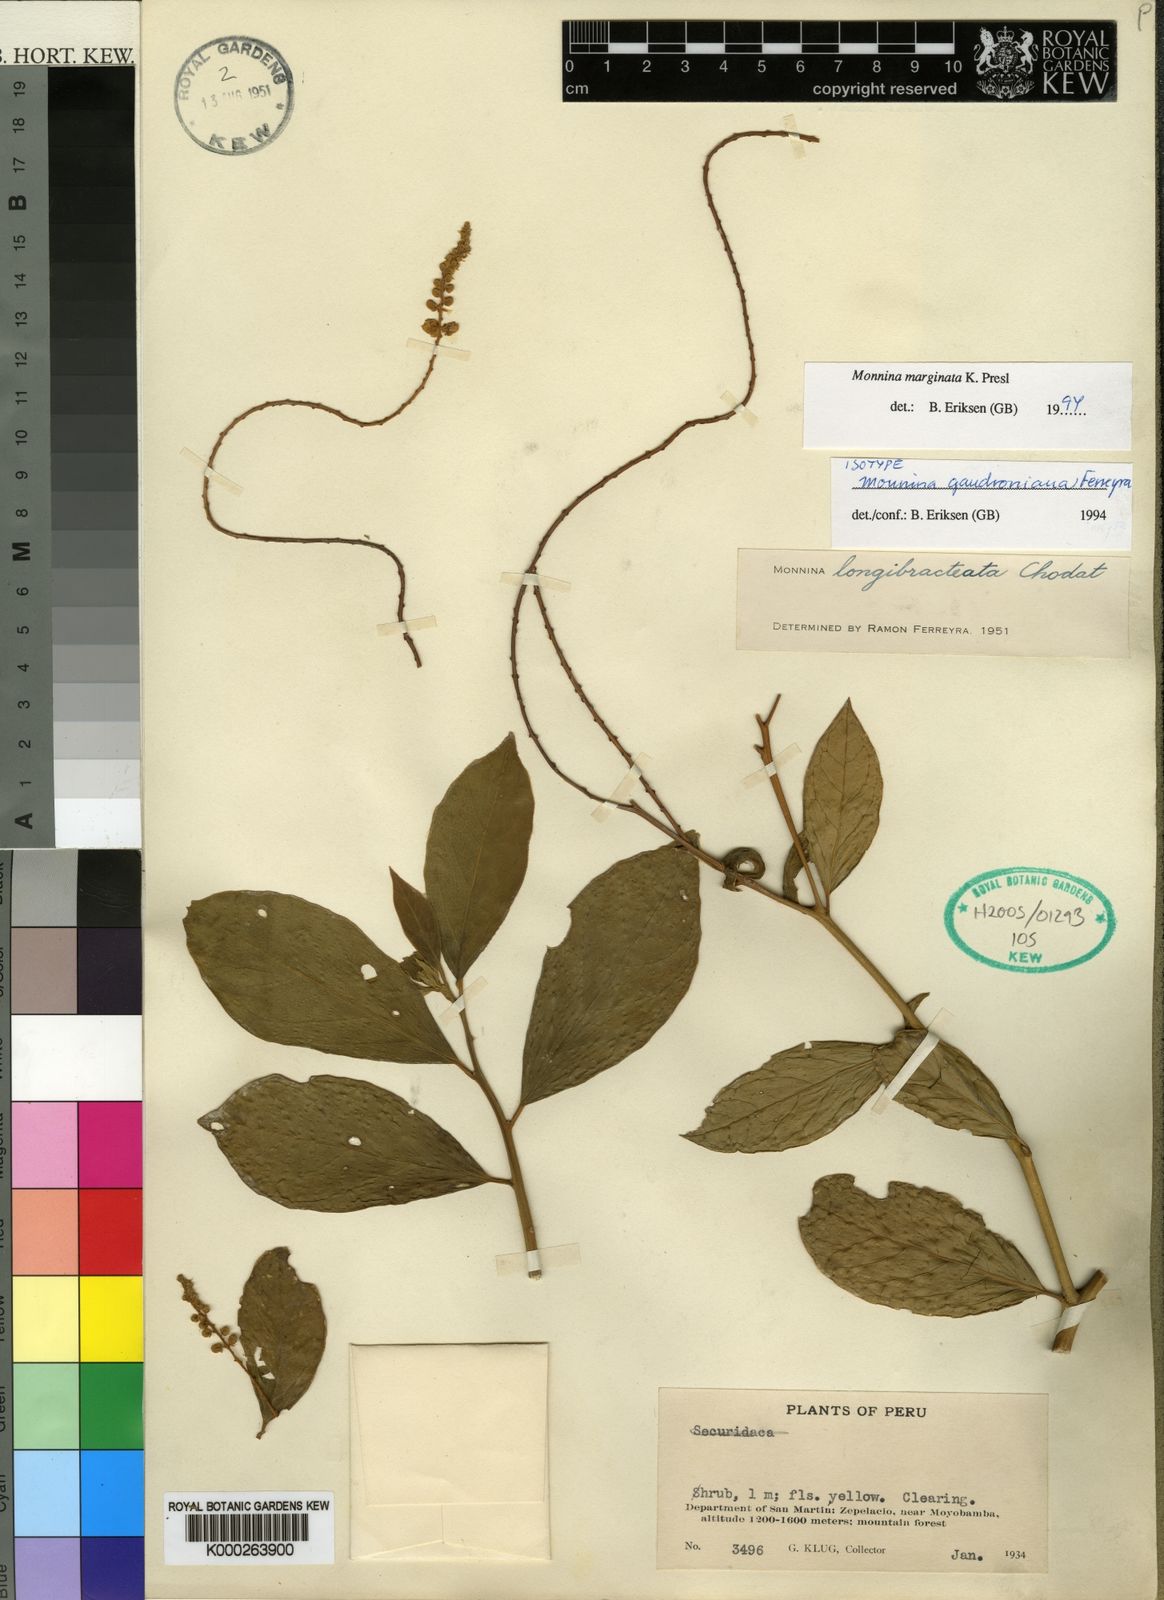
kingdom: Plantae
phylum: Tracheophyta
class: Magnoliopsida
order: Fabales
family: Polygalaceae
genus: Monnina
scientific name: Monnina marginata
